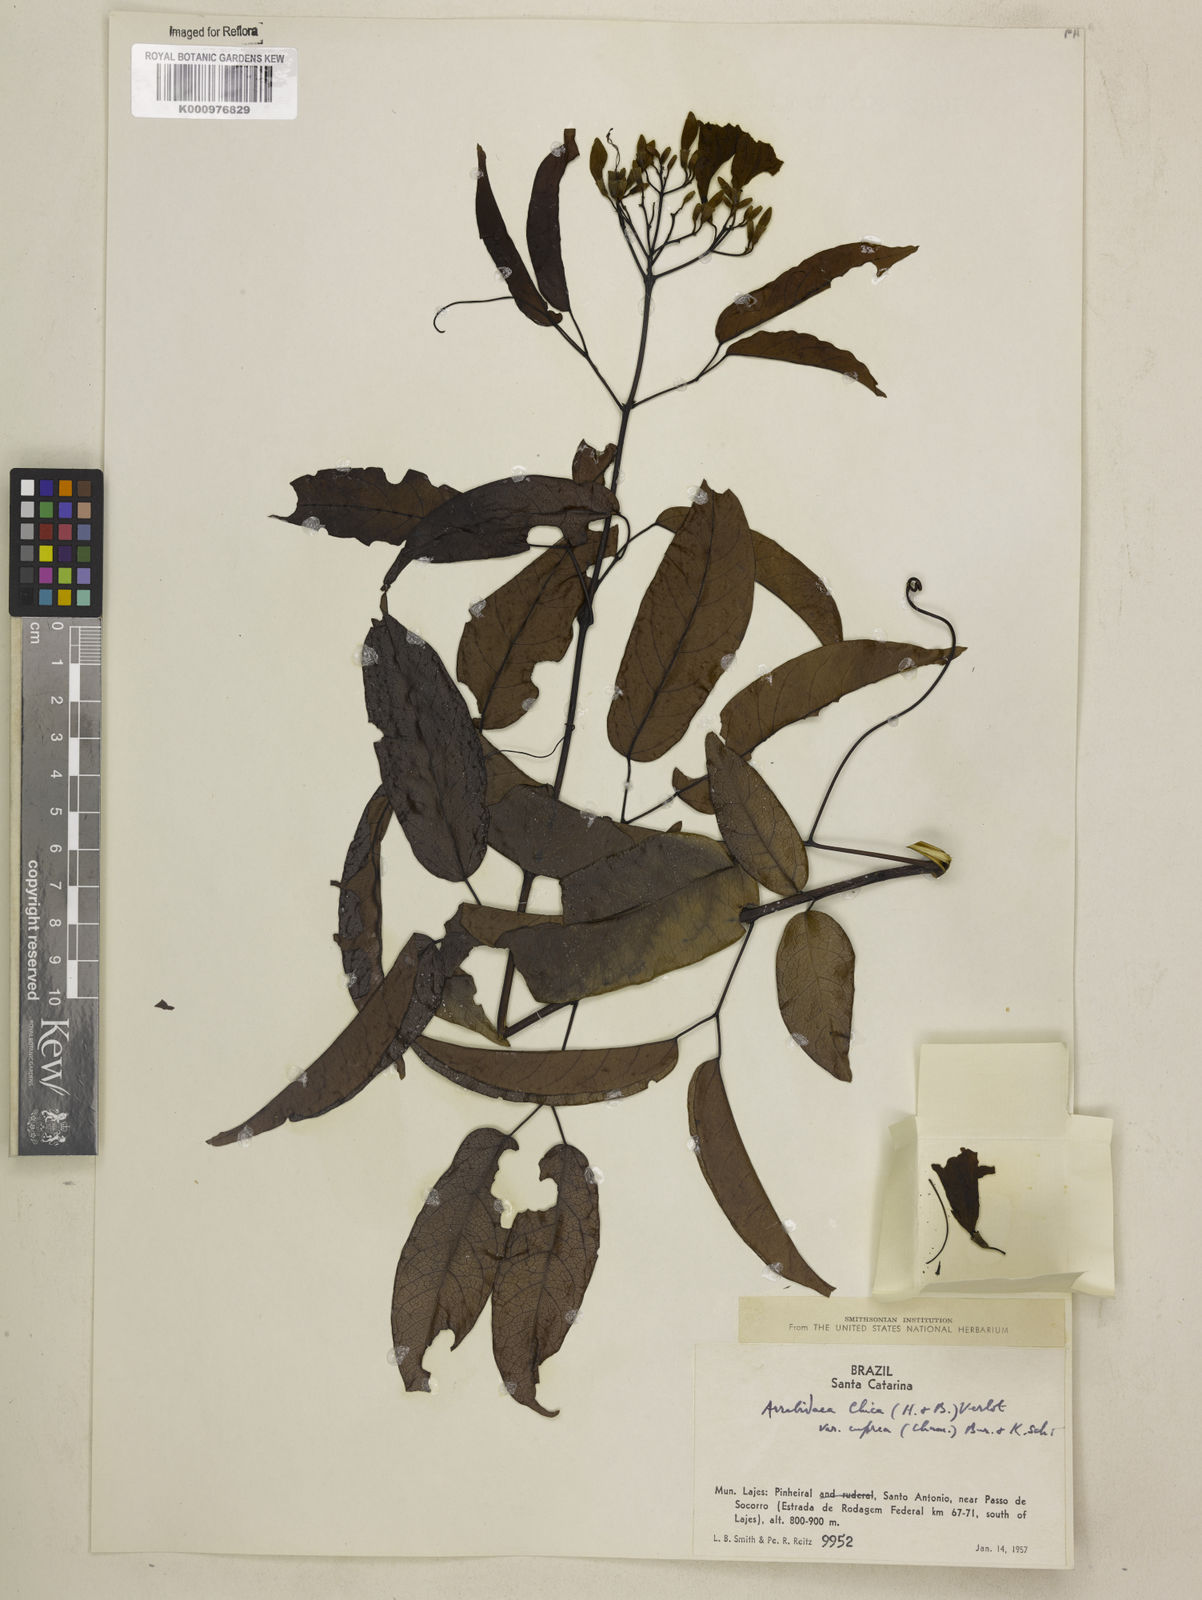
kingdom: Plantae
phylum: Tracheophyta
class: Magnoliopsida
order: Lamiales
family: Bignoniaceae
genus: Fridericia
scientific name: Fridericia chica
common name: Cricketvine
